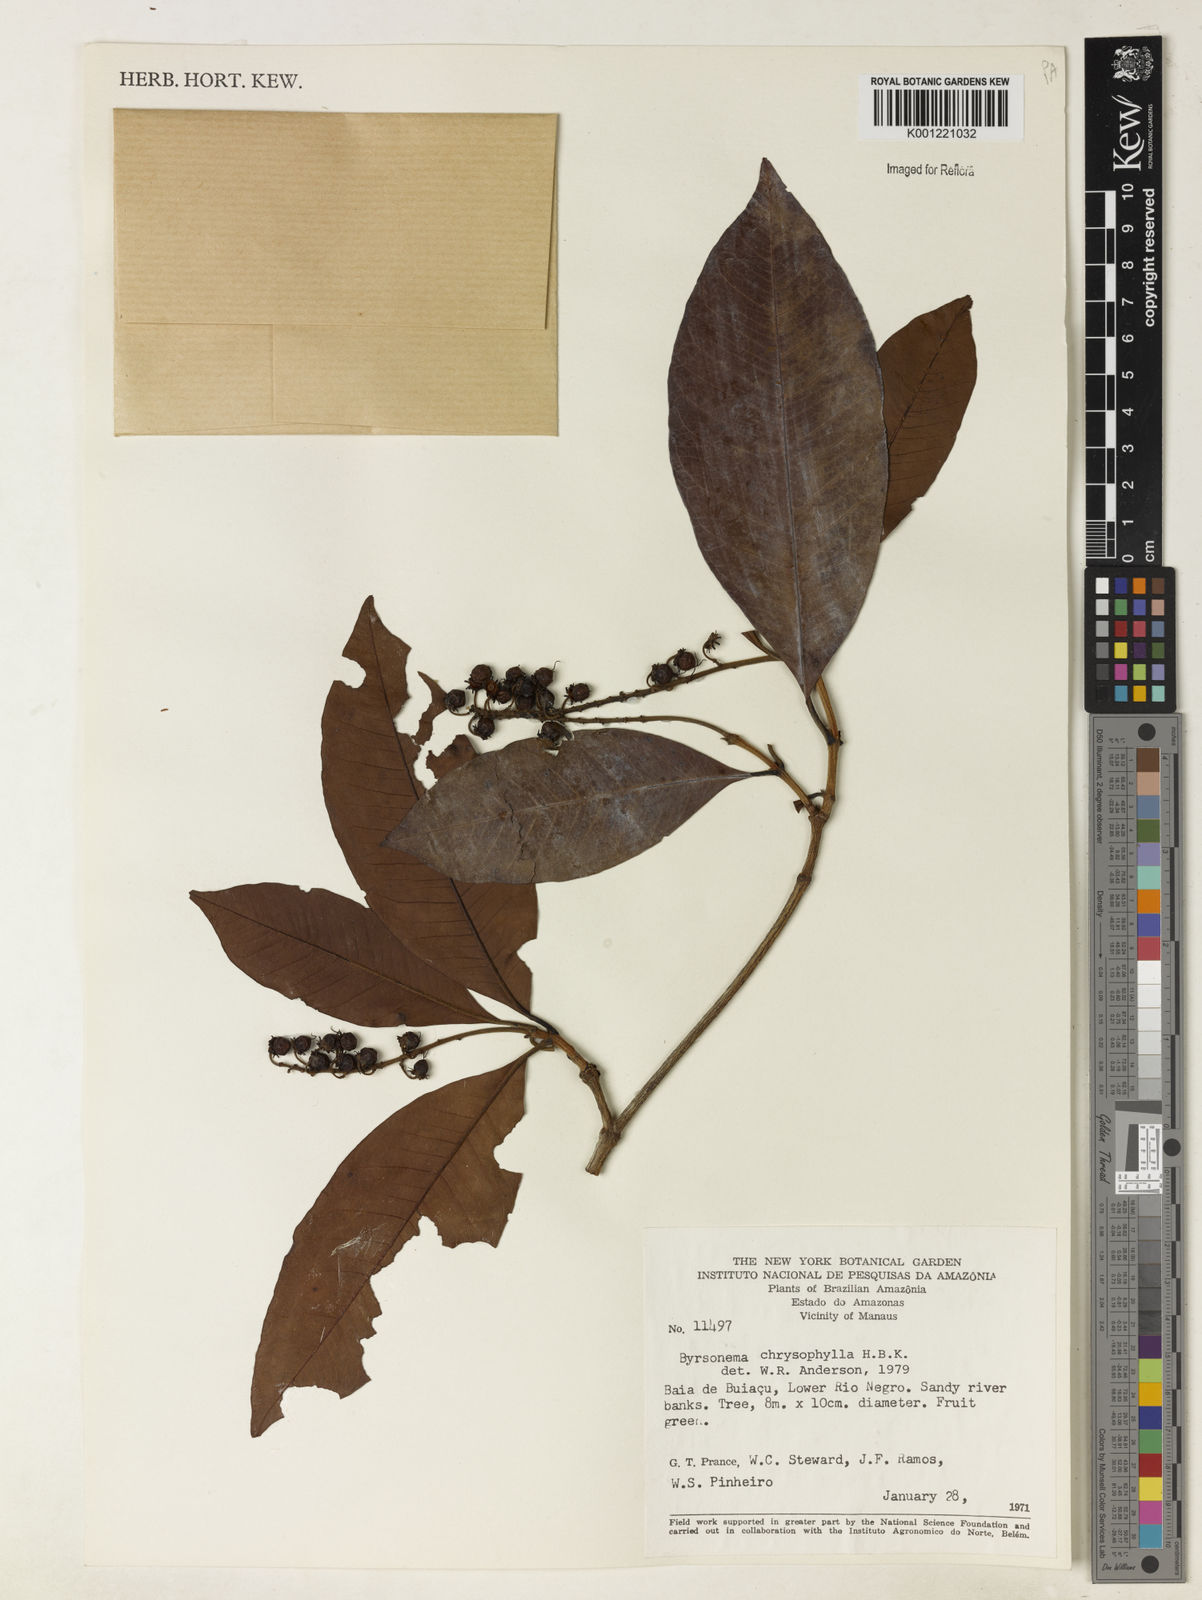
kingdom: Plantae
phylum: Tracheophyta
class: Magnoliopsida
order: Malpighiales
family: Malpighiaceae
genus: Byrsonima
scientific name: Byrsonima chrysophylla
